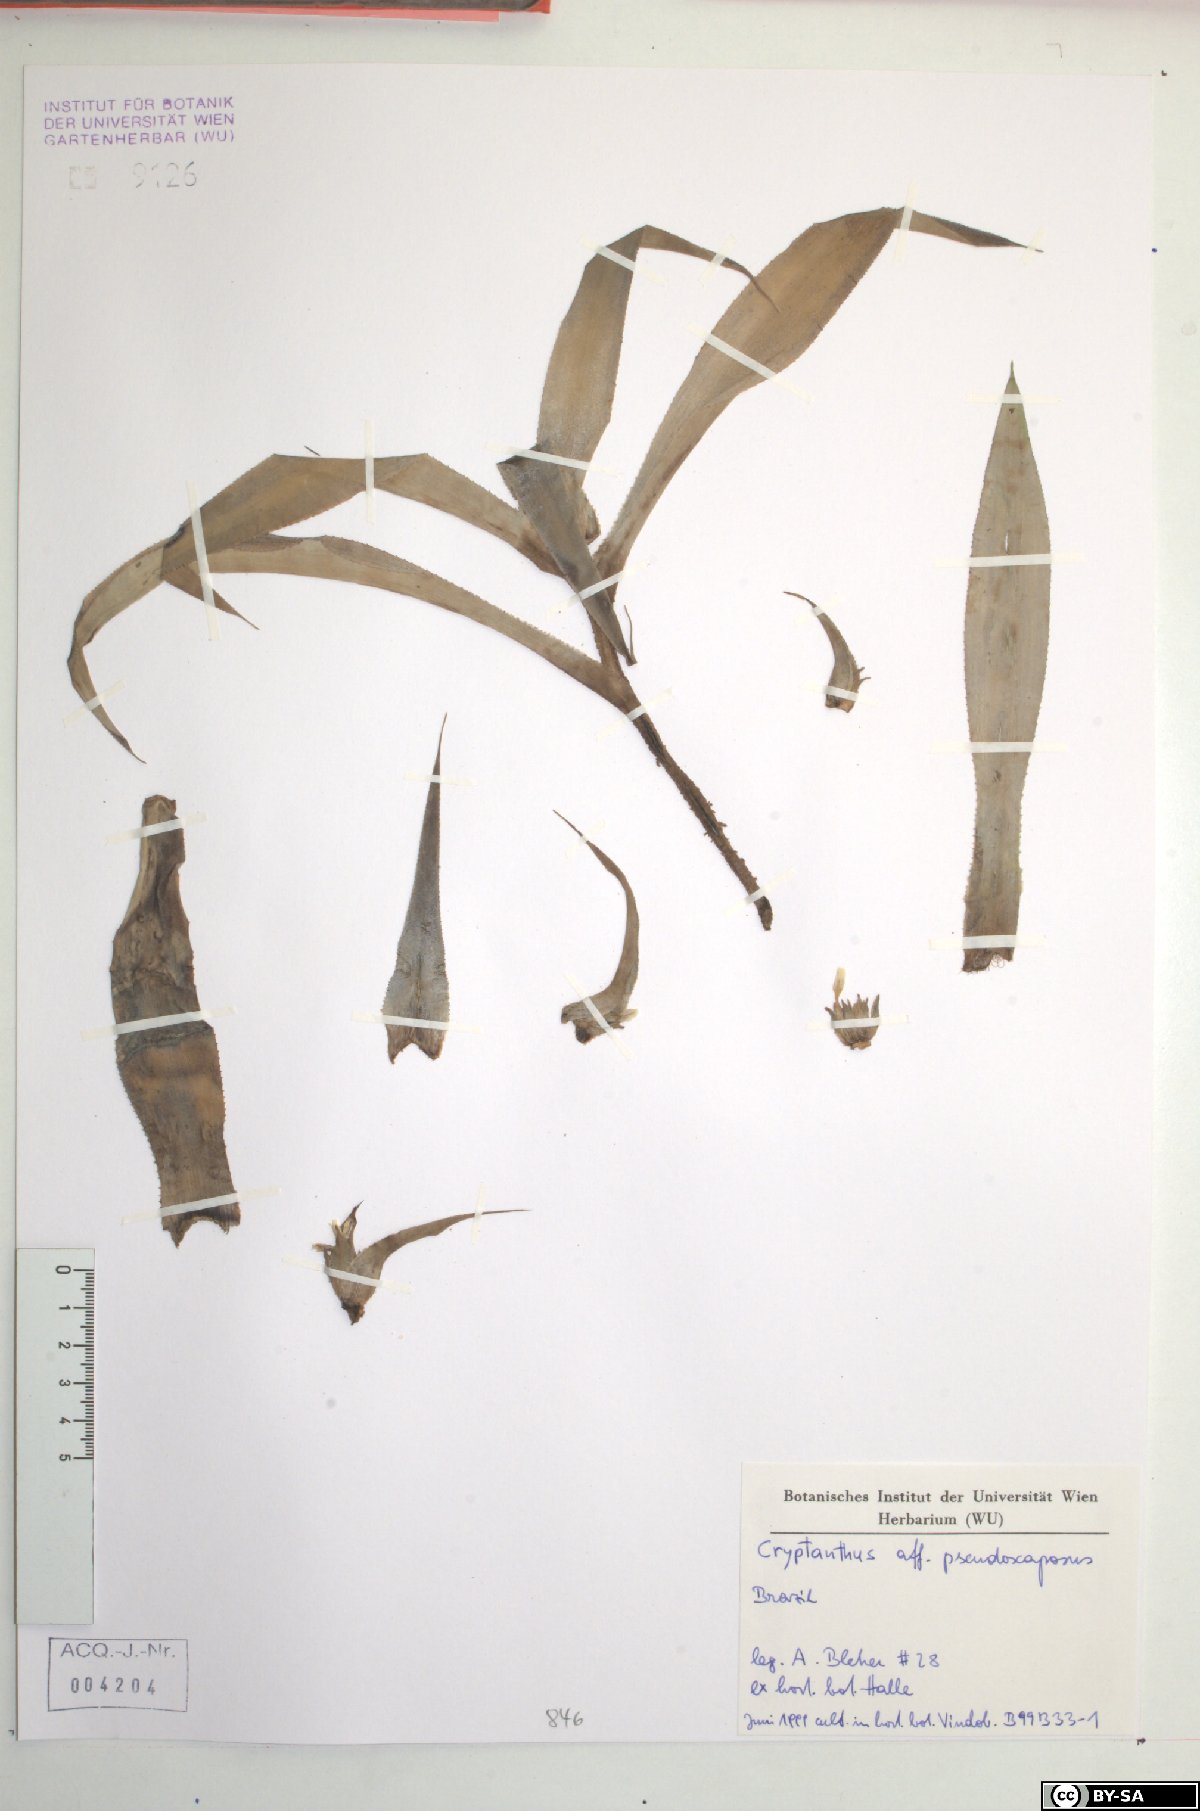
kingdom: Plantae
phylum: Tracheophyta
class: Liliopsida
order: Poales
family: Bromeliaceae
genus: Cryptanthus
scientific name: Cryptanthus pseudopetiolatus
